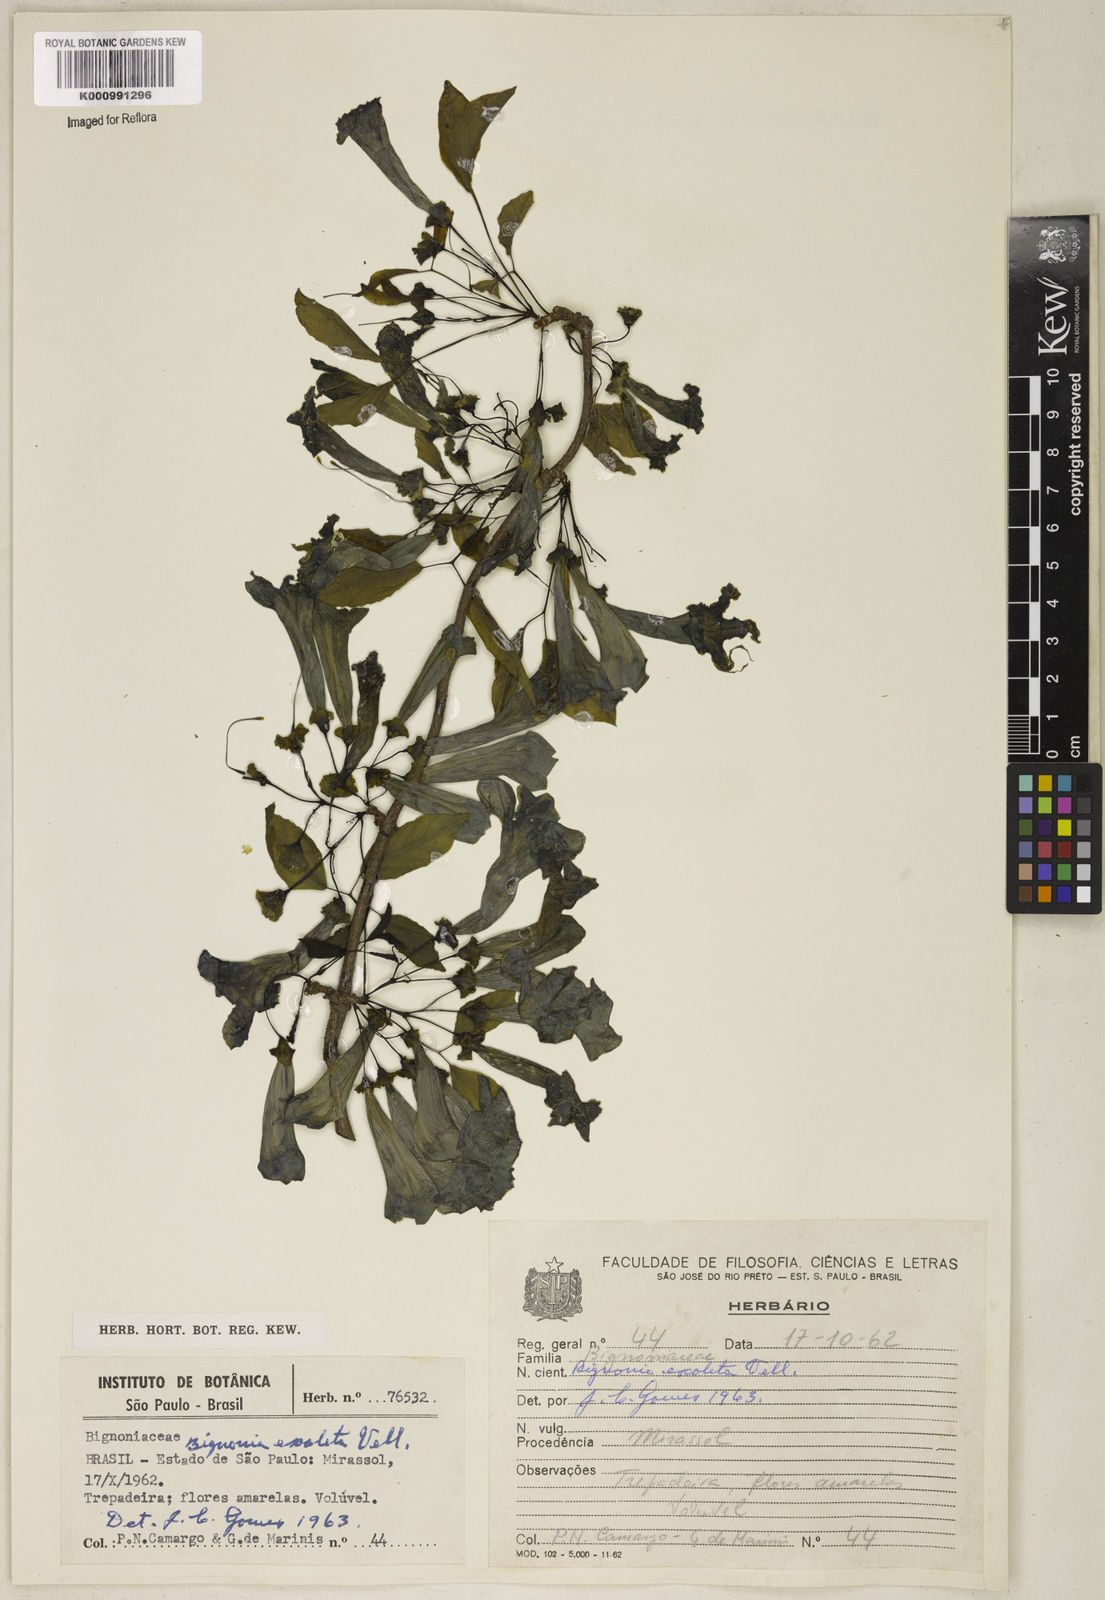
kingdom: Plantae
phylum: Tracheophyta
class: Magnoliopsida
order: Lamiales
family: Bignoniaceae
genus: Dolichandra
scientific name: Dolichandra unguis-cati
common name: Catclaw vine
